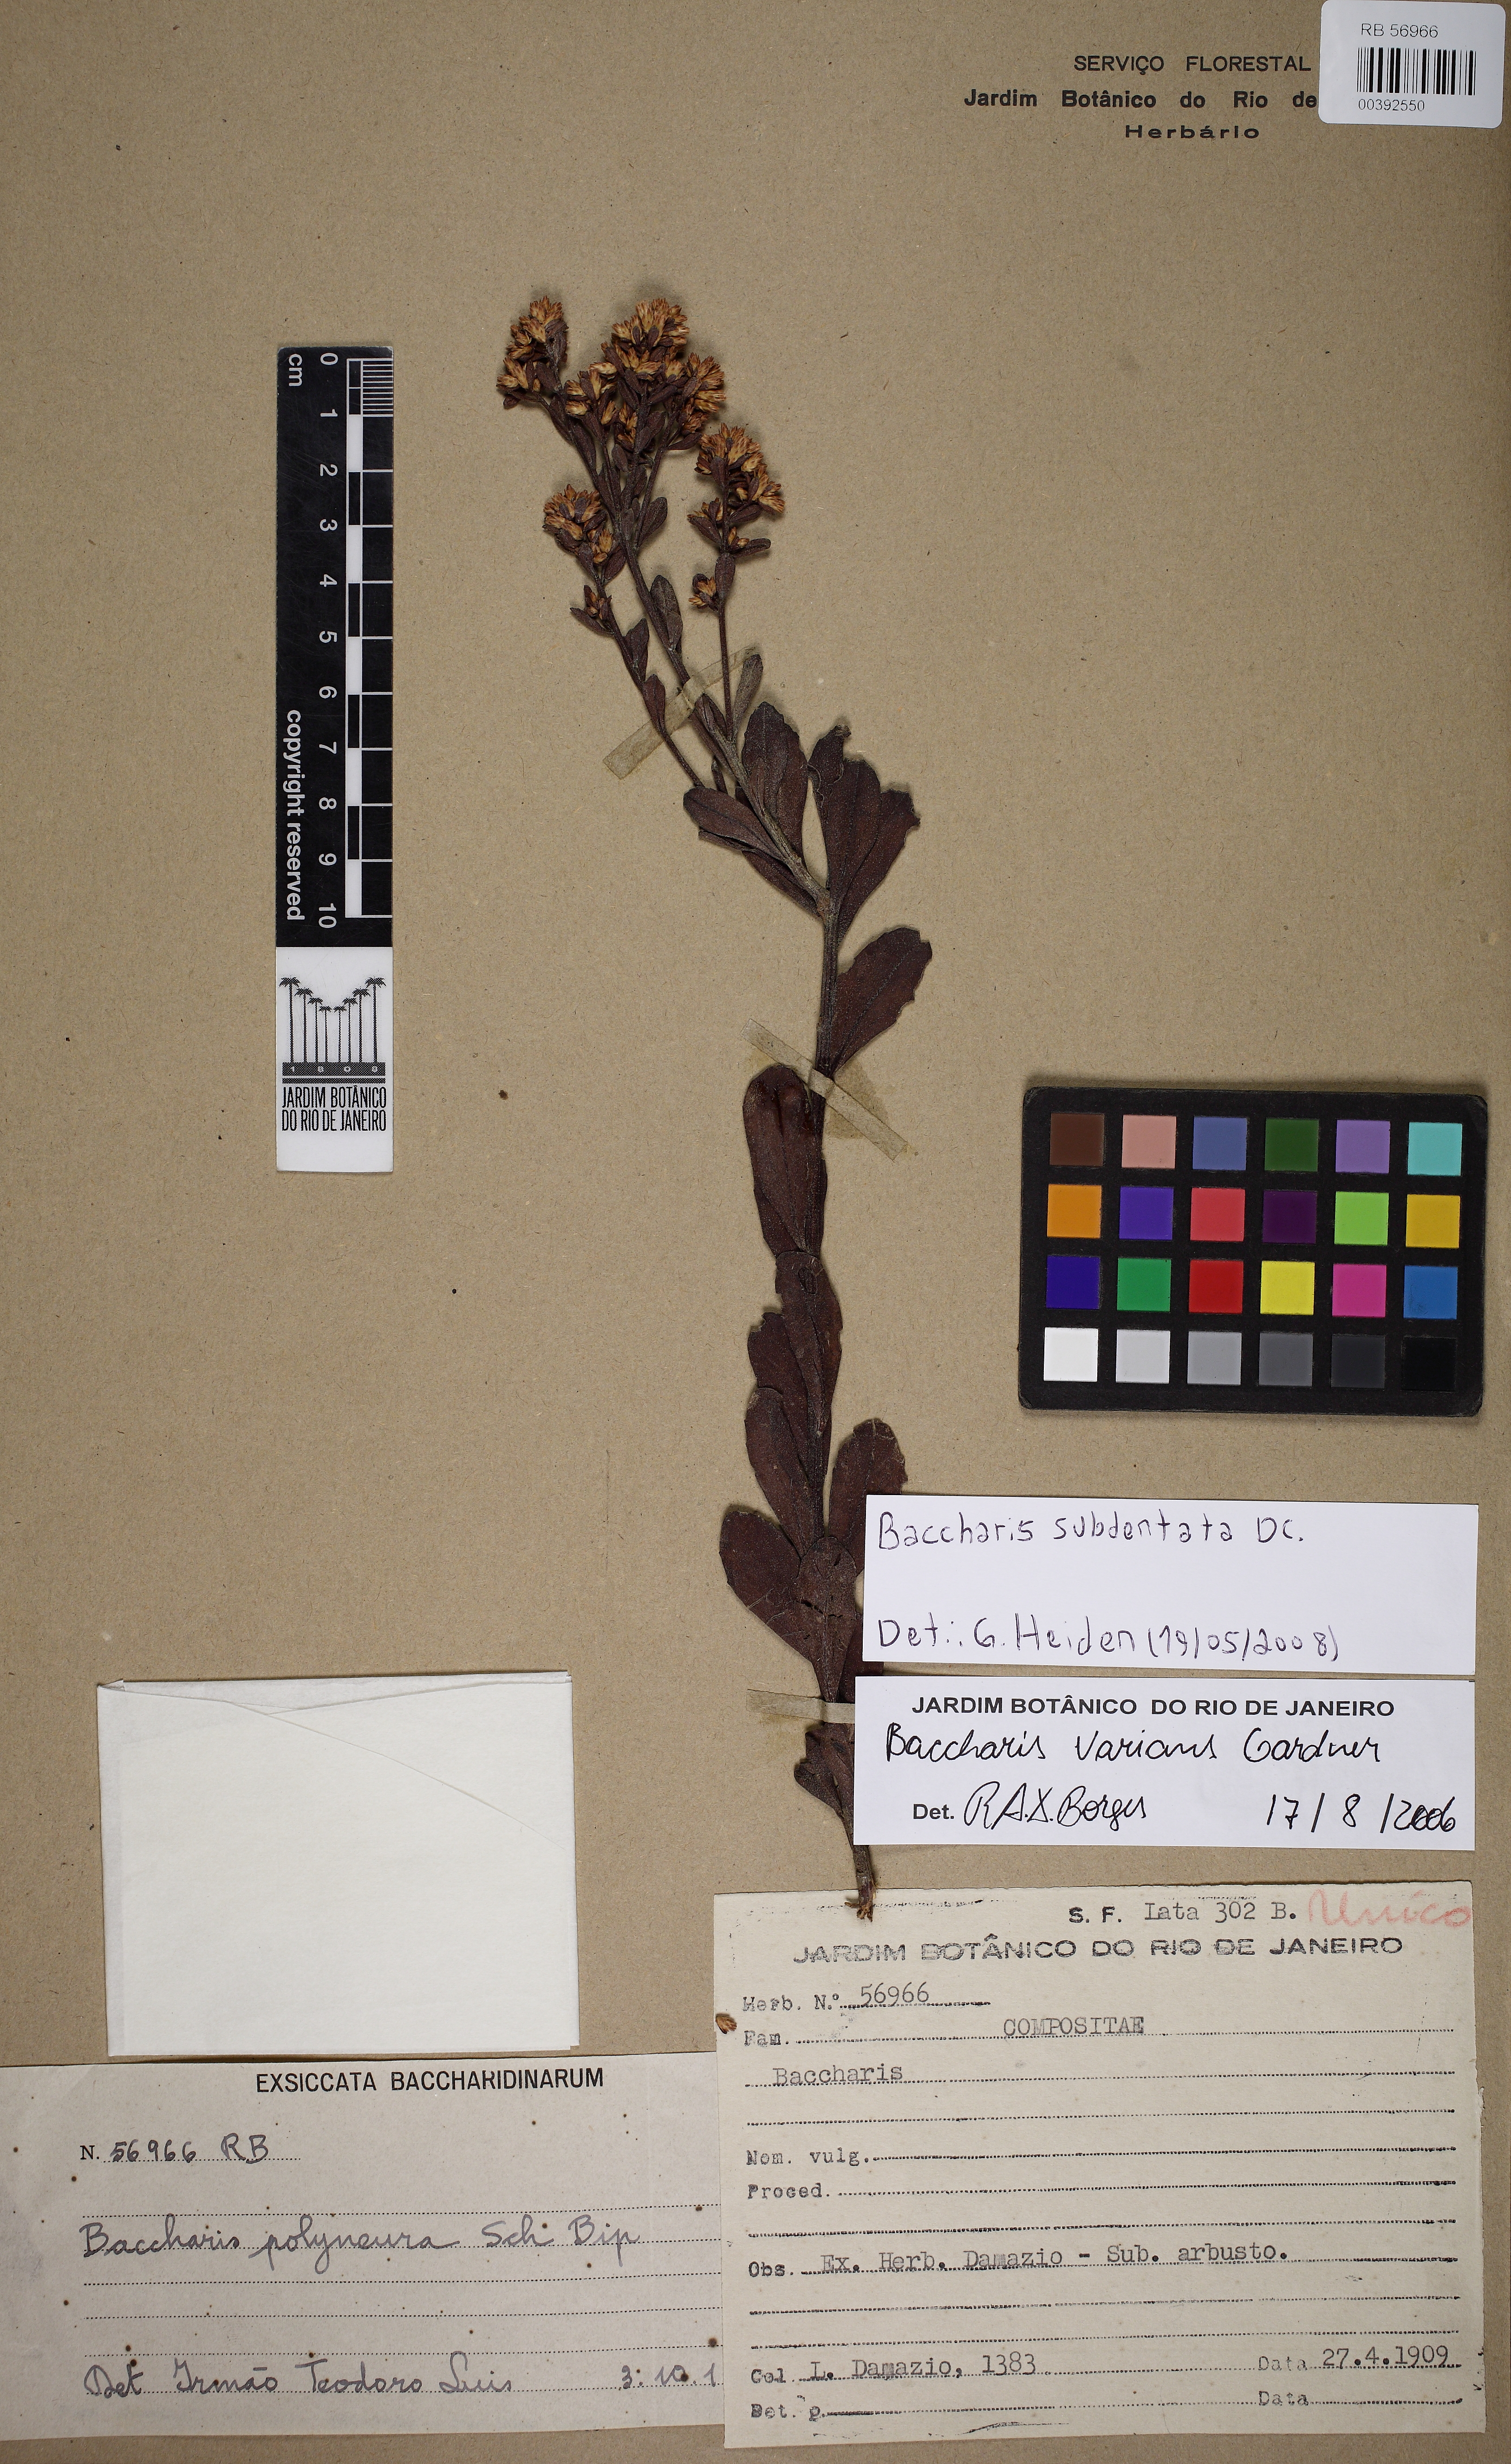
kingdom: Plantae
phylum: Tracheophyta
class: Magnoliopsida
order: Asterales
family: Asteraceae
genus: Baccharis
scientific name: Baccharis subdentata
